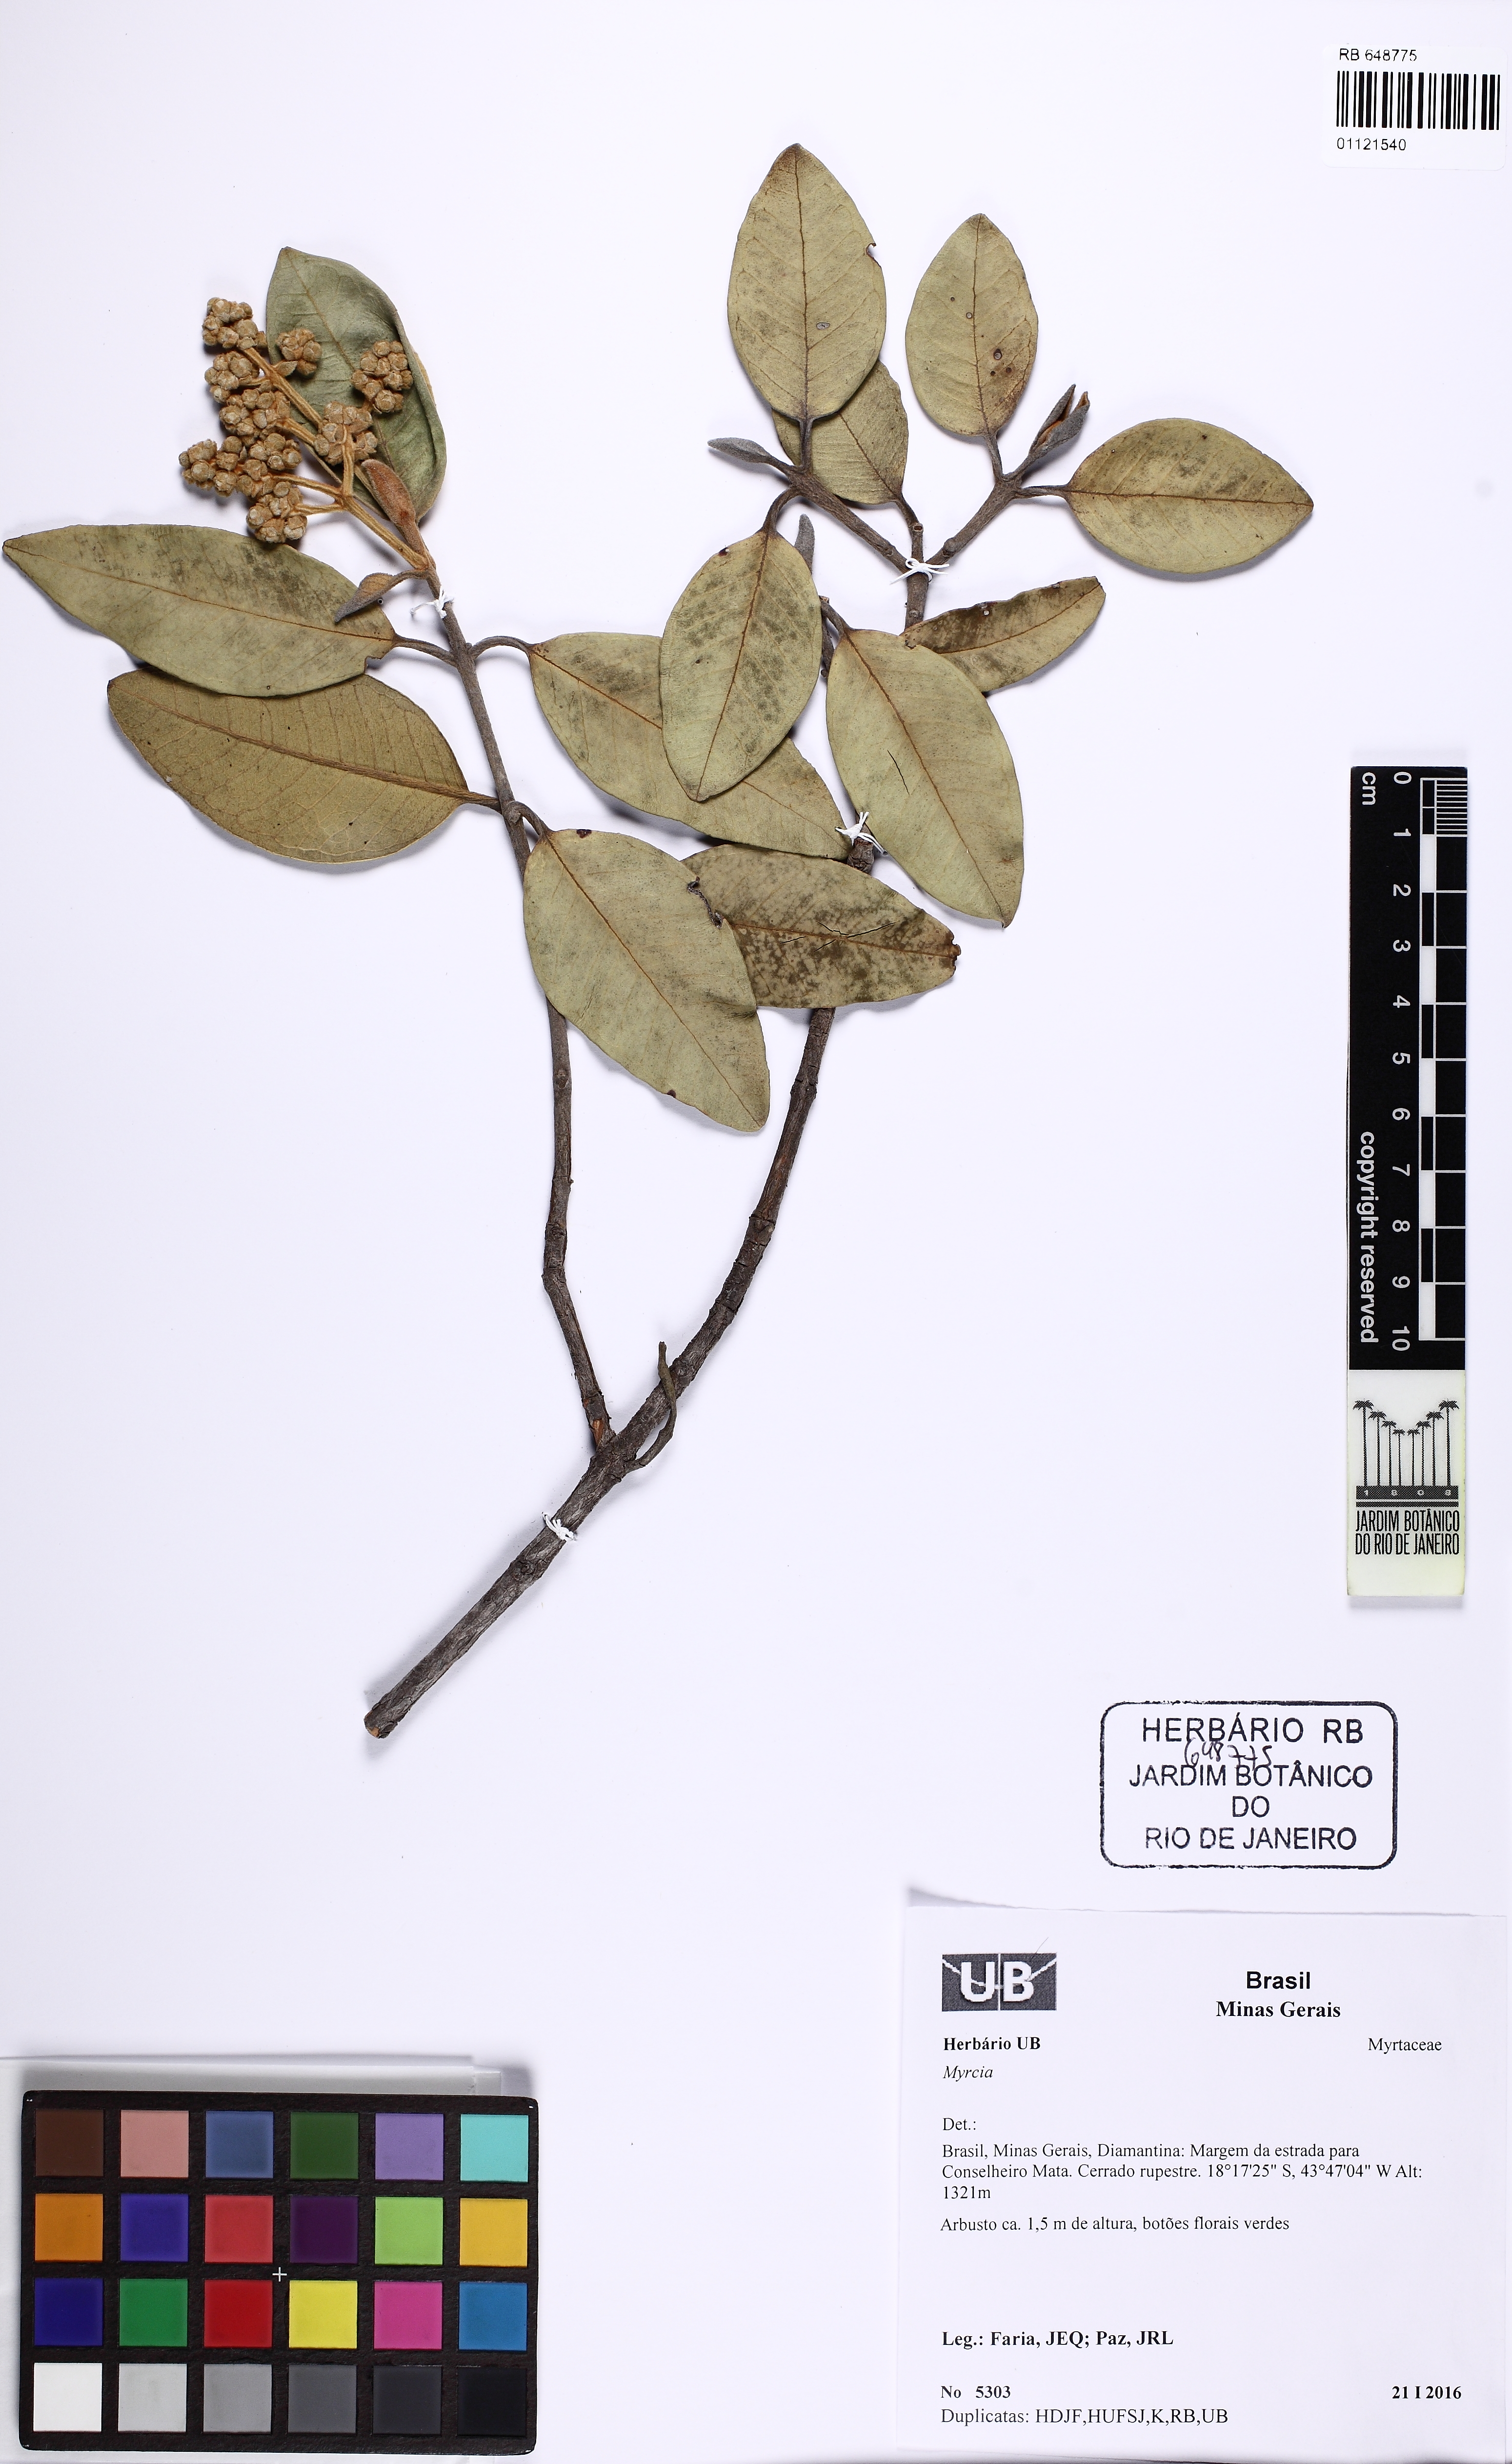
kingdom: Plantae
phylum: Tracheophyta
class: Magnoliopsida
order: Myrtales
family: Myrtaceae
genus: Myrcia
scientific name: Myrcia mischophylla
